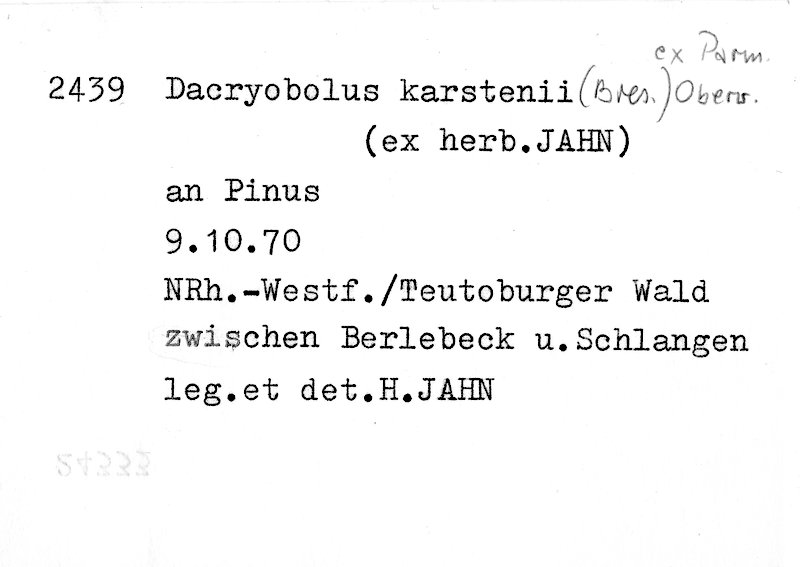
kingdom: Plantae
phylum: Tracheophyta
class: Pinopsida
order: Pinales
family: Pinaceae
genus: Pinus
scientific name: Pinus
